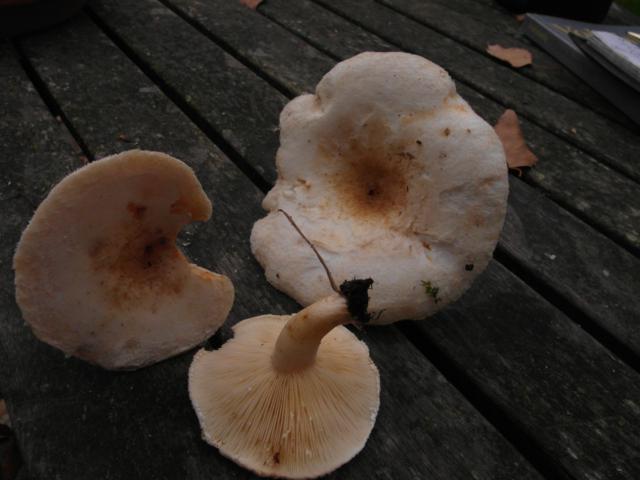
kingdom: Fungi
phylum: Basidiomycota
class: Agaricomycetes
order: Russulales
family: Russulaceae
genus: Lactarius
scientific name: Lactarius scoticus
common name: tørve-mælkehat
